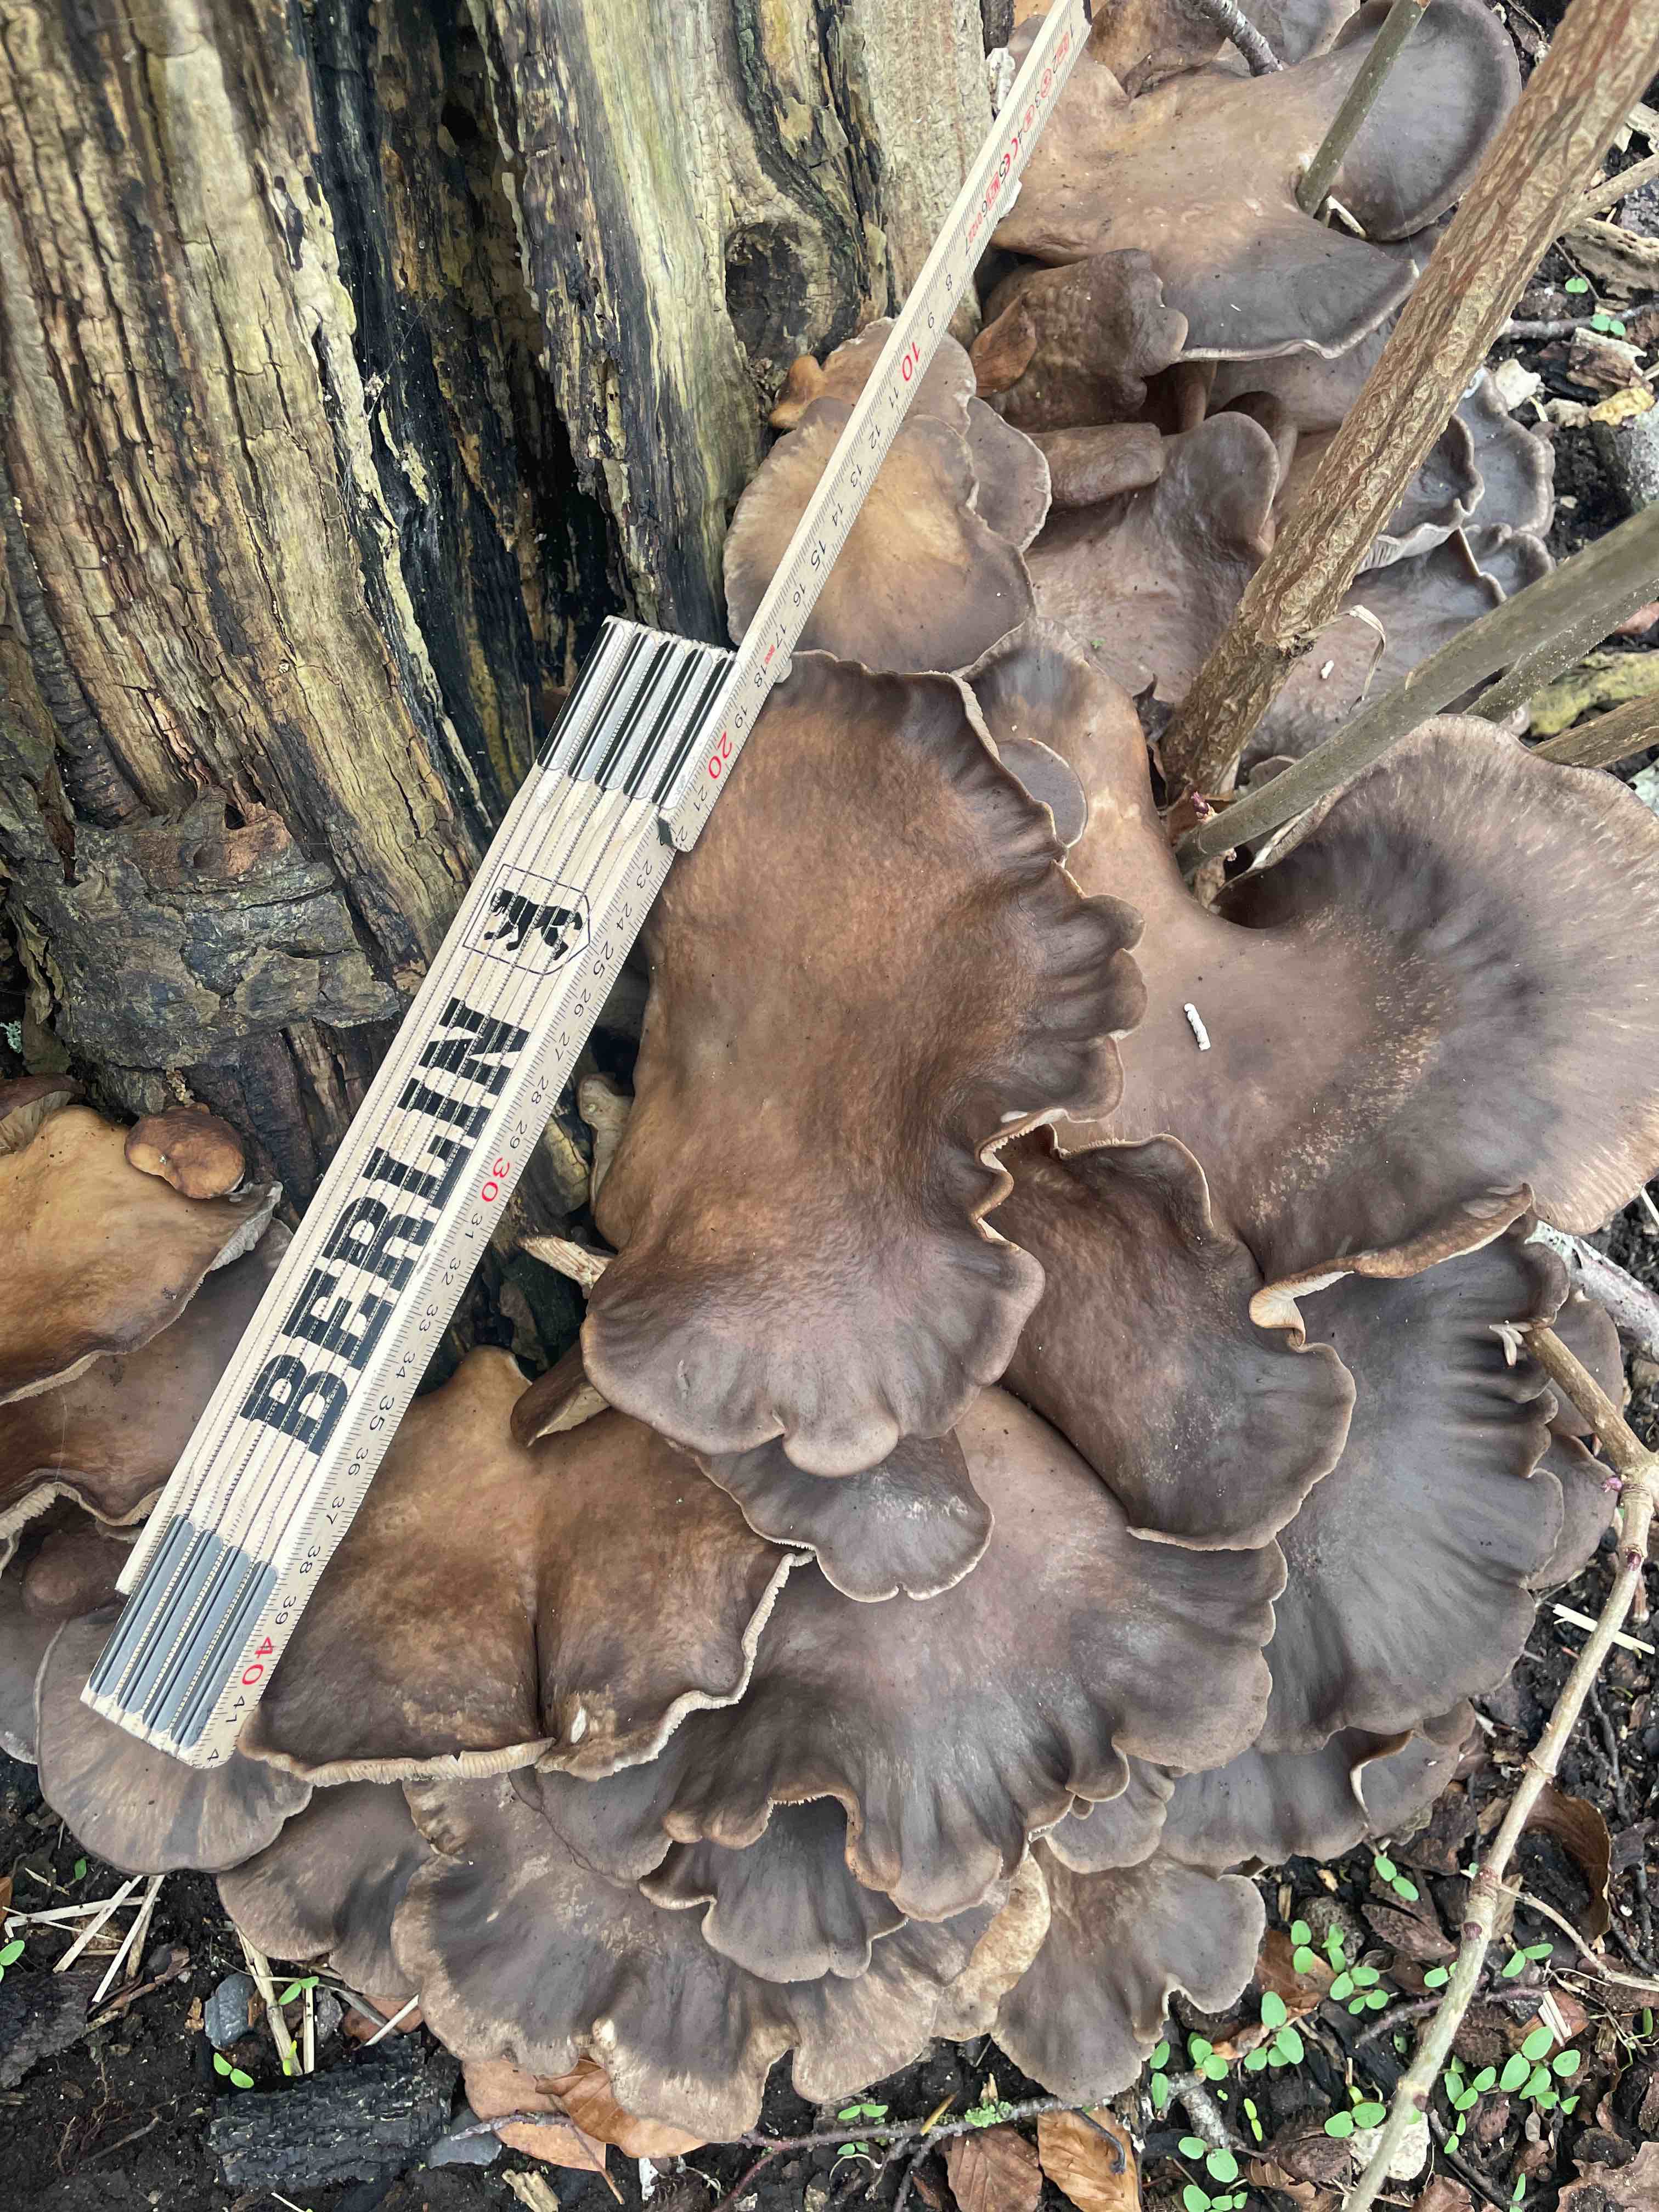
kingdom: Fungi
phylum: Basidiomycota
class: Agaricomycetes
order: Agaricales
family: Pleurotaceae
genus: Pleurotus
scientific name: Pleurotus ostreatus
